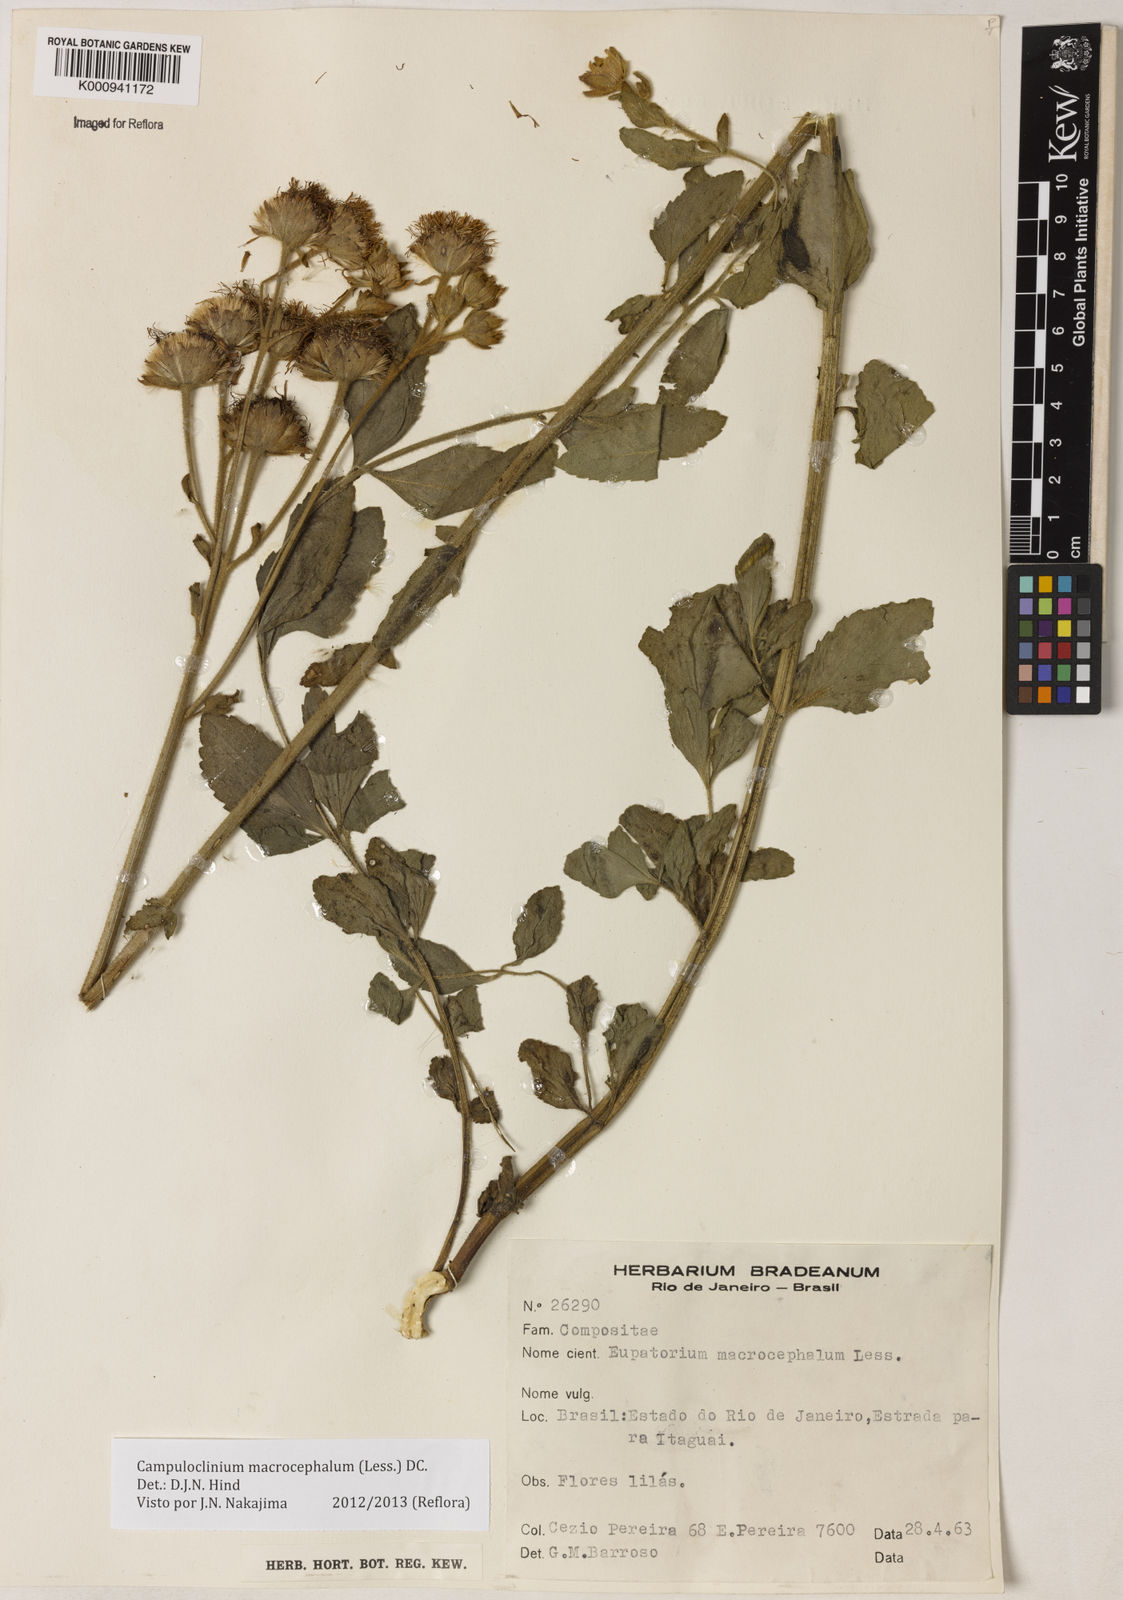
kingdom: Plantae
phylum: Tracheophyta
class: Magnoliopsida
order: Asterales
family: Asteraceae
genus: Campuloclinium
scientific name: Campuloclinium macrocephalum
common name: Pompomweed
